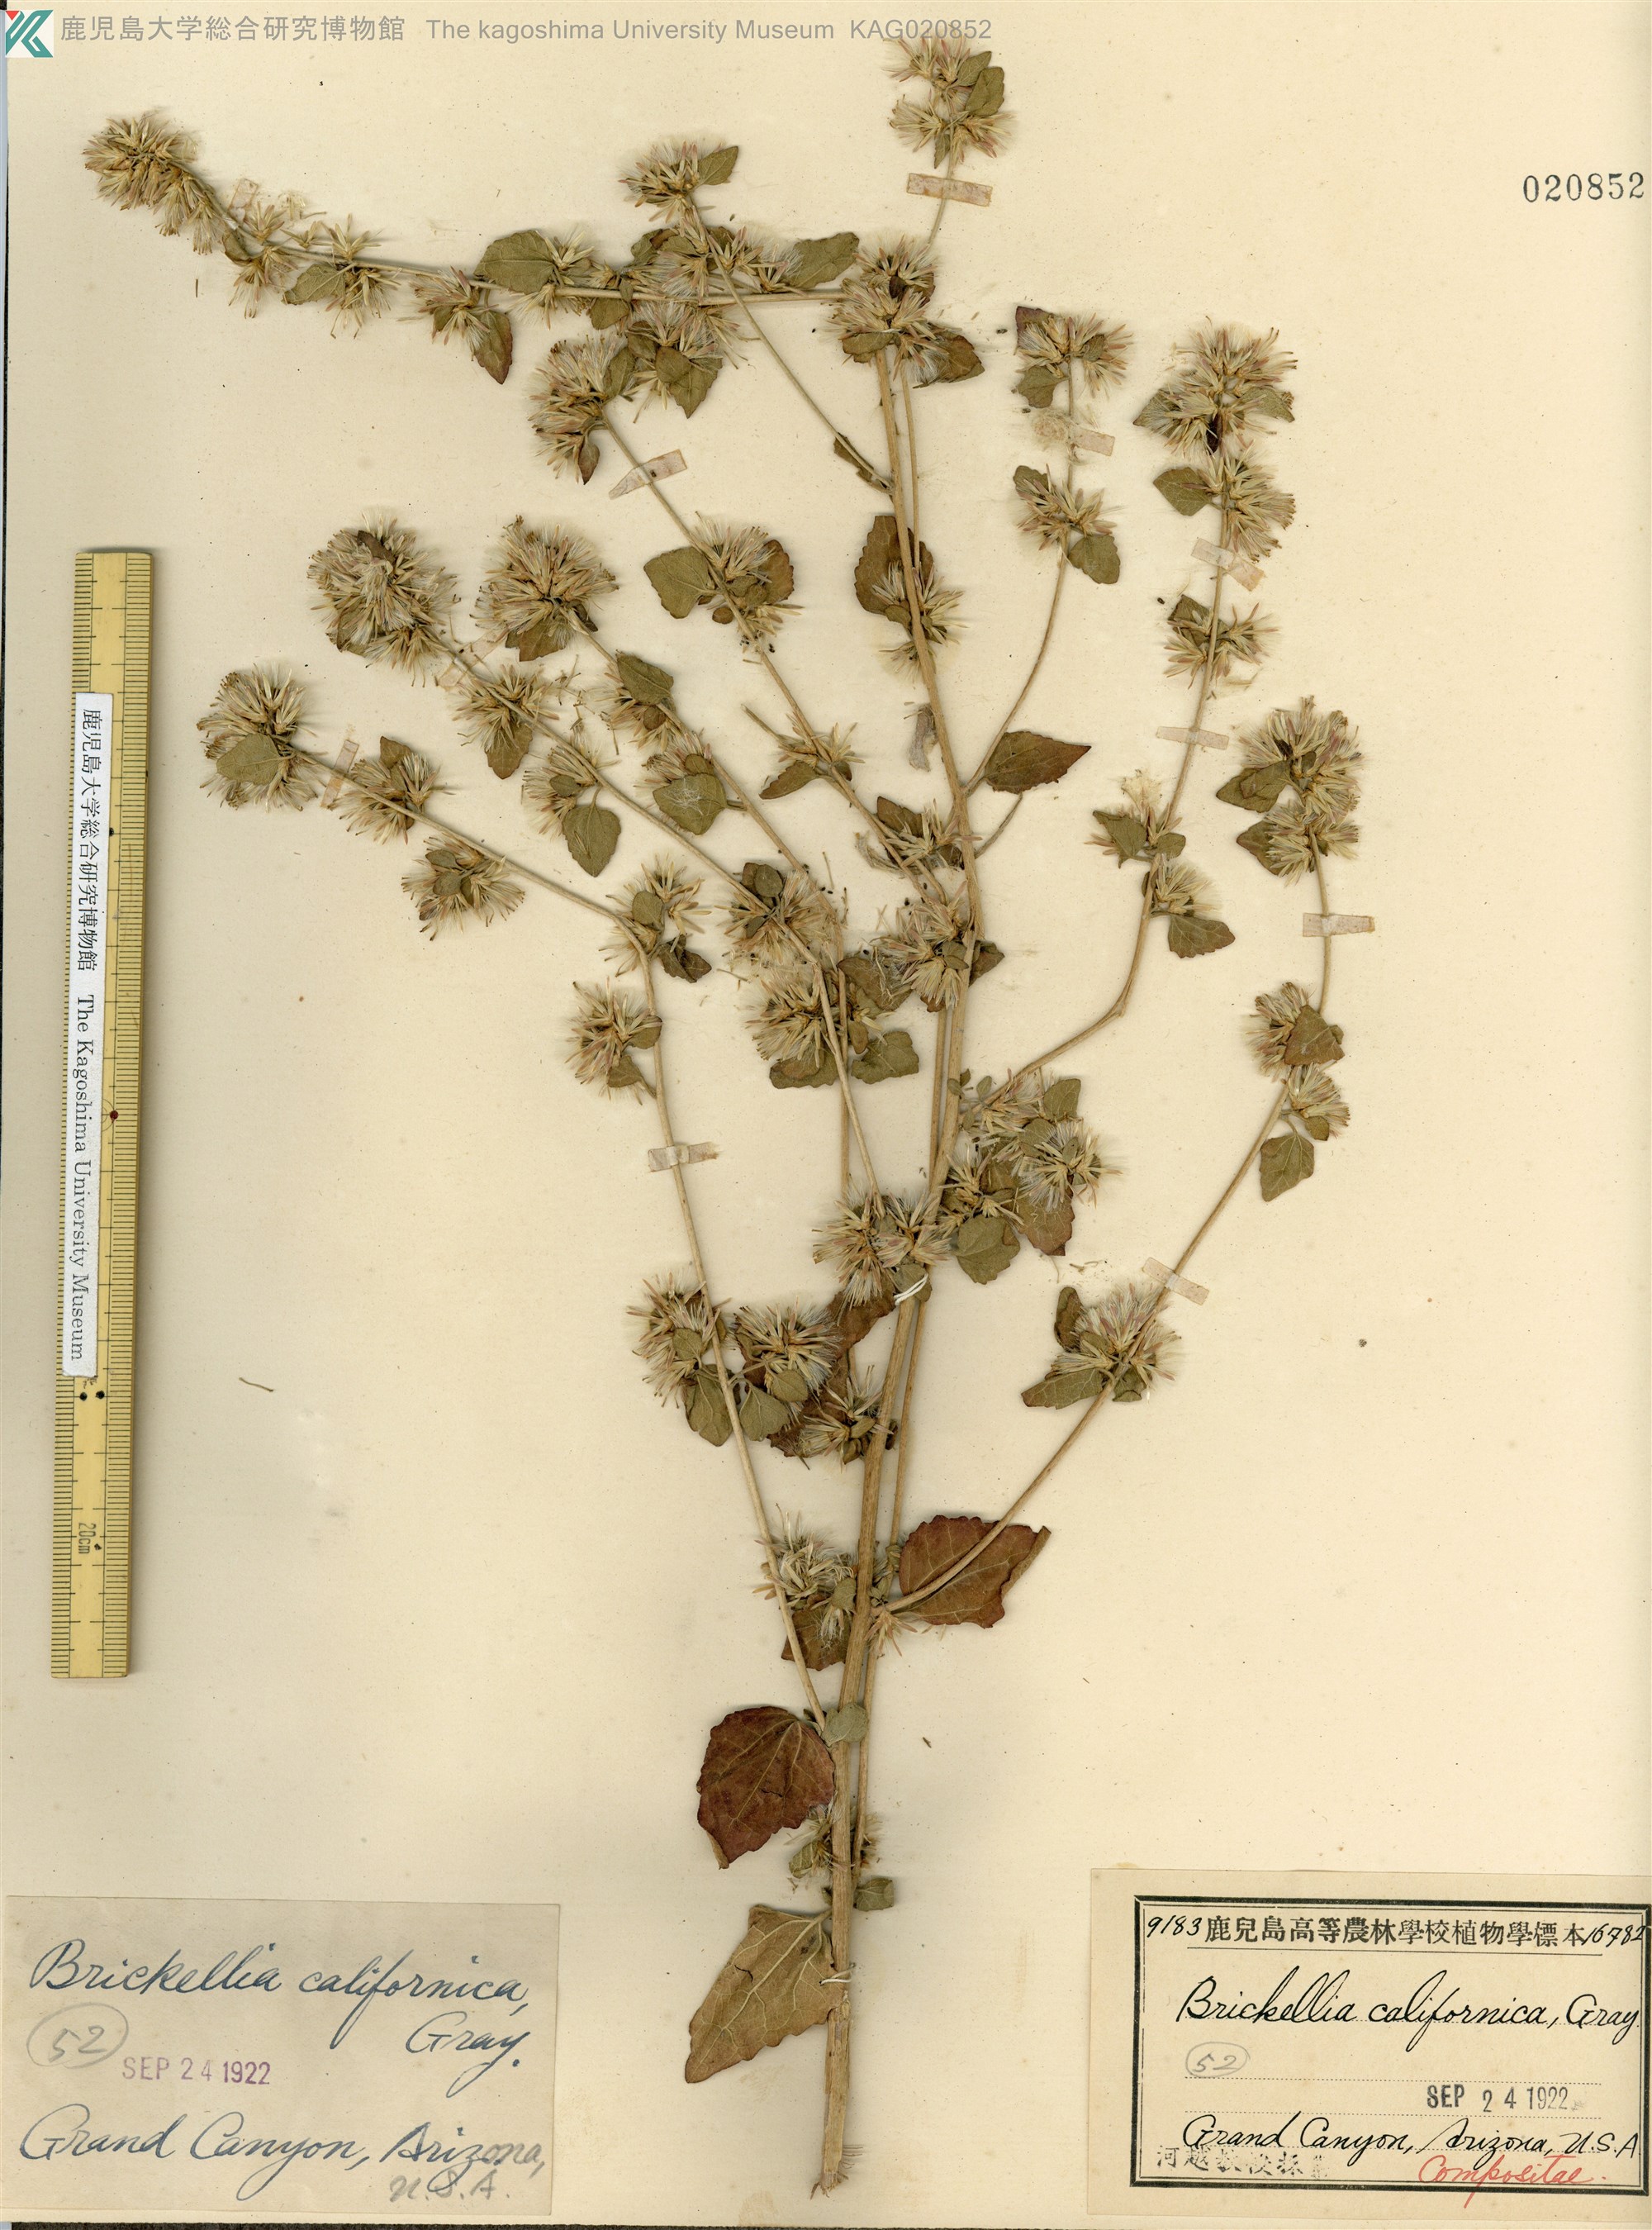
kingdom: Plantae
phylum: Tracheophyta
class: Magnoliopsida
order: Asterales
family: Asteraceae
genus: Brickellia
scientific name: Brickellia californica
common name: California brickellbush
